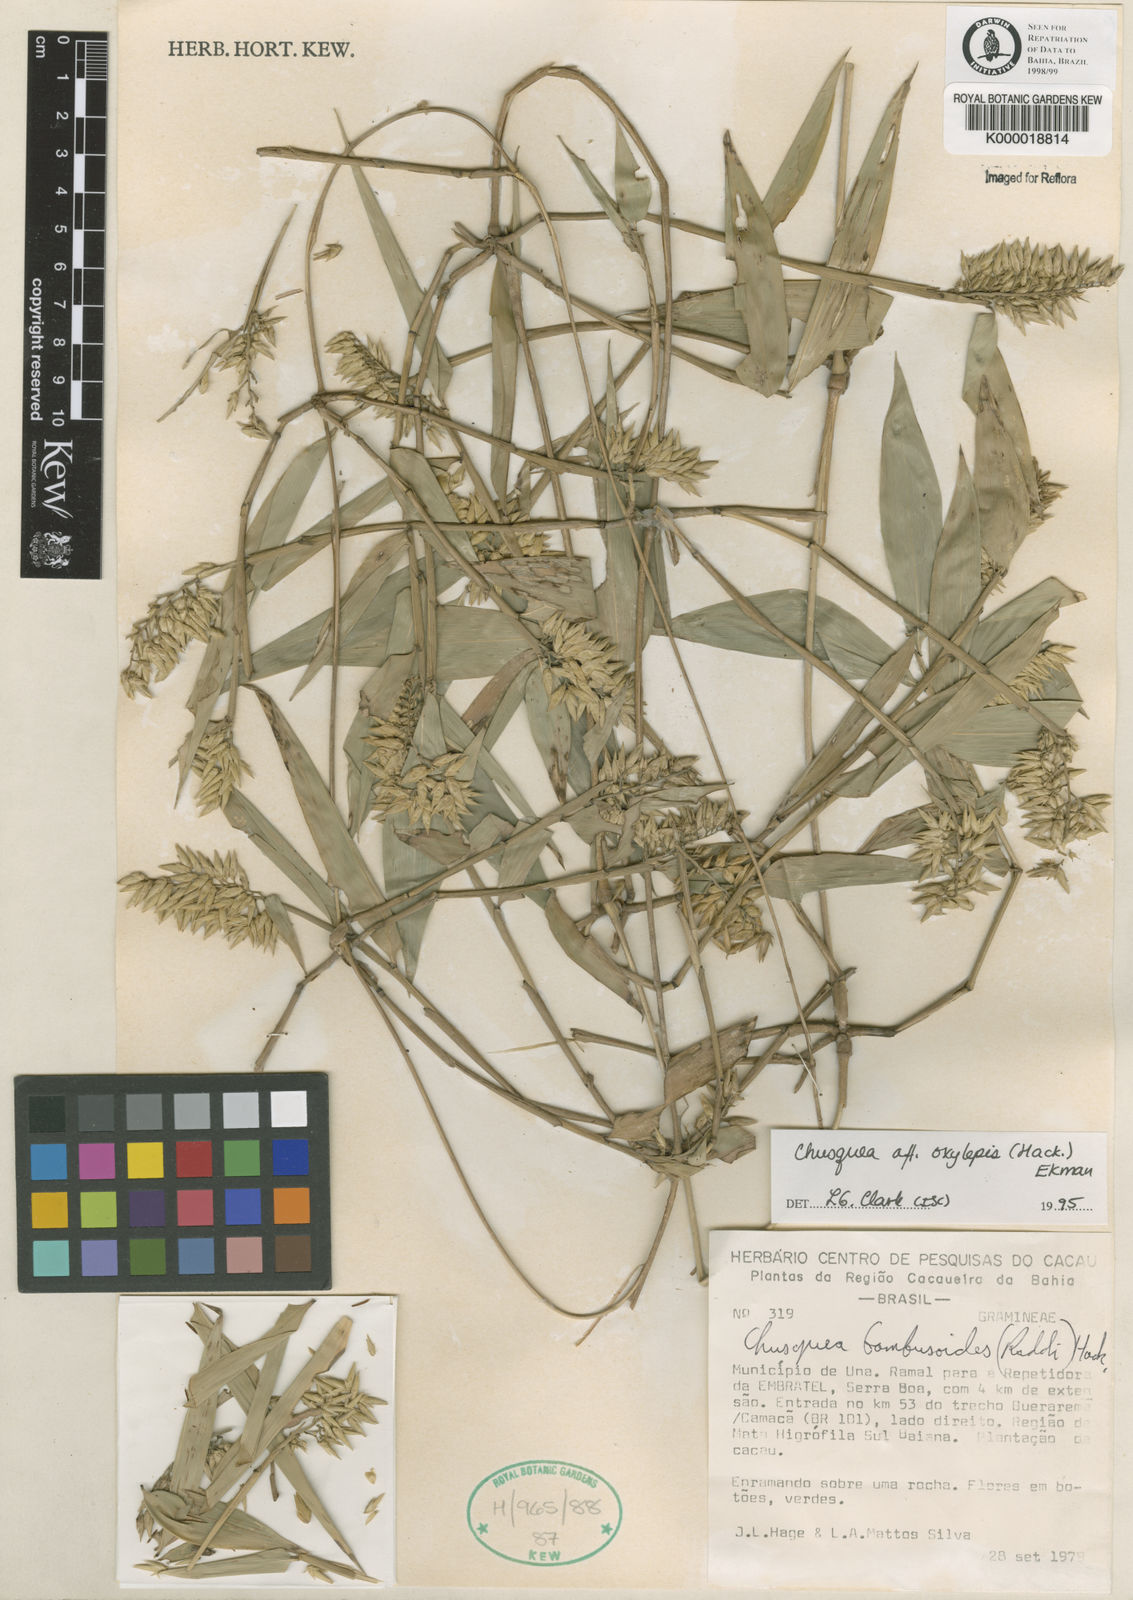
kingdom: Plantae
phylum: Tracheophyta
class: Liliopsida
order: Poales
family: Poaceae
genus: Chusquea
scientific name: Chusquea oxylepis
